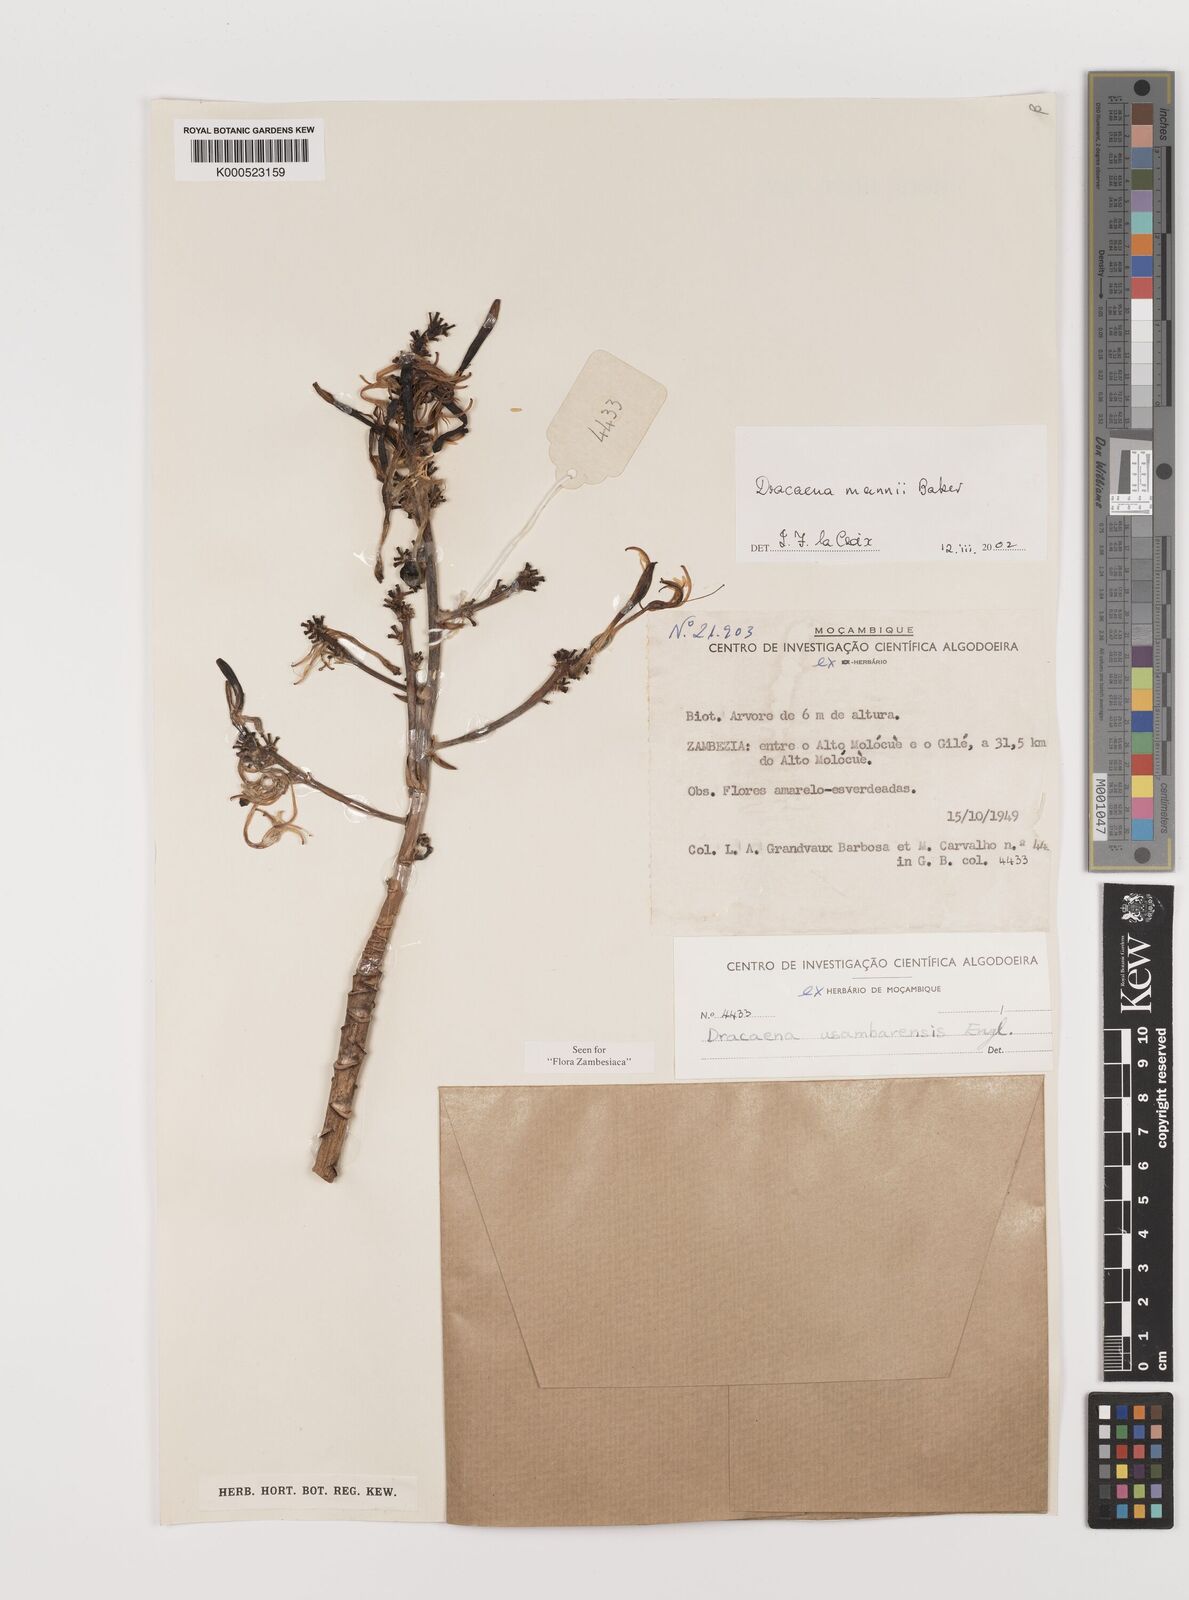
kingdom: Plantae
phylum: Tracheophyta
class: Liliopsida
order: Asparagales
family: Asparagaceae
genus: Dracaena
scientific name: Dracaena mannii
